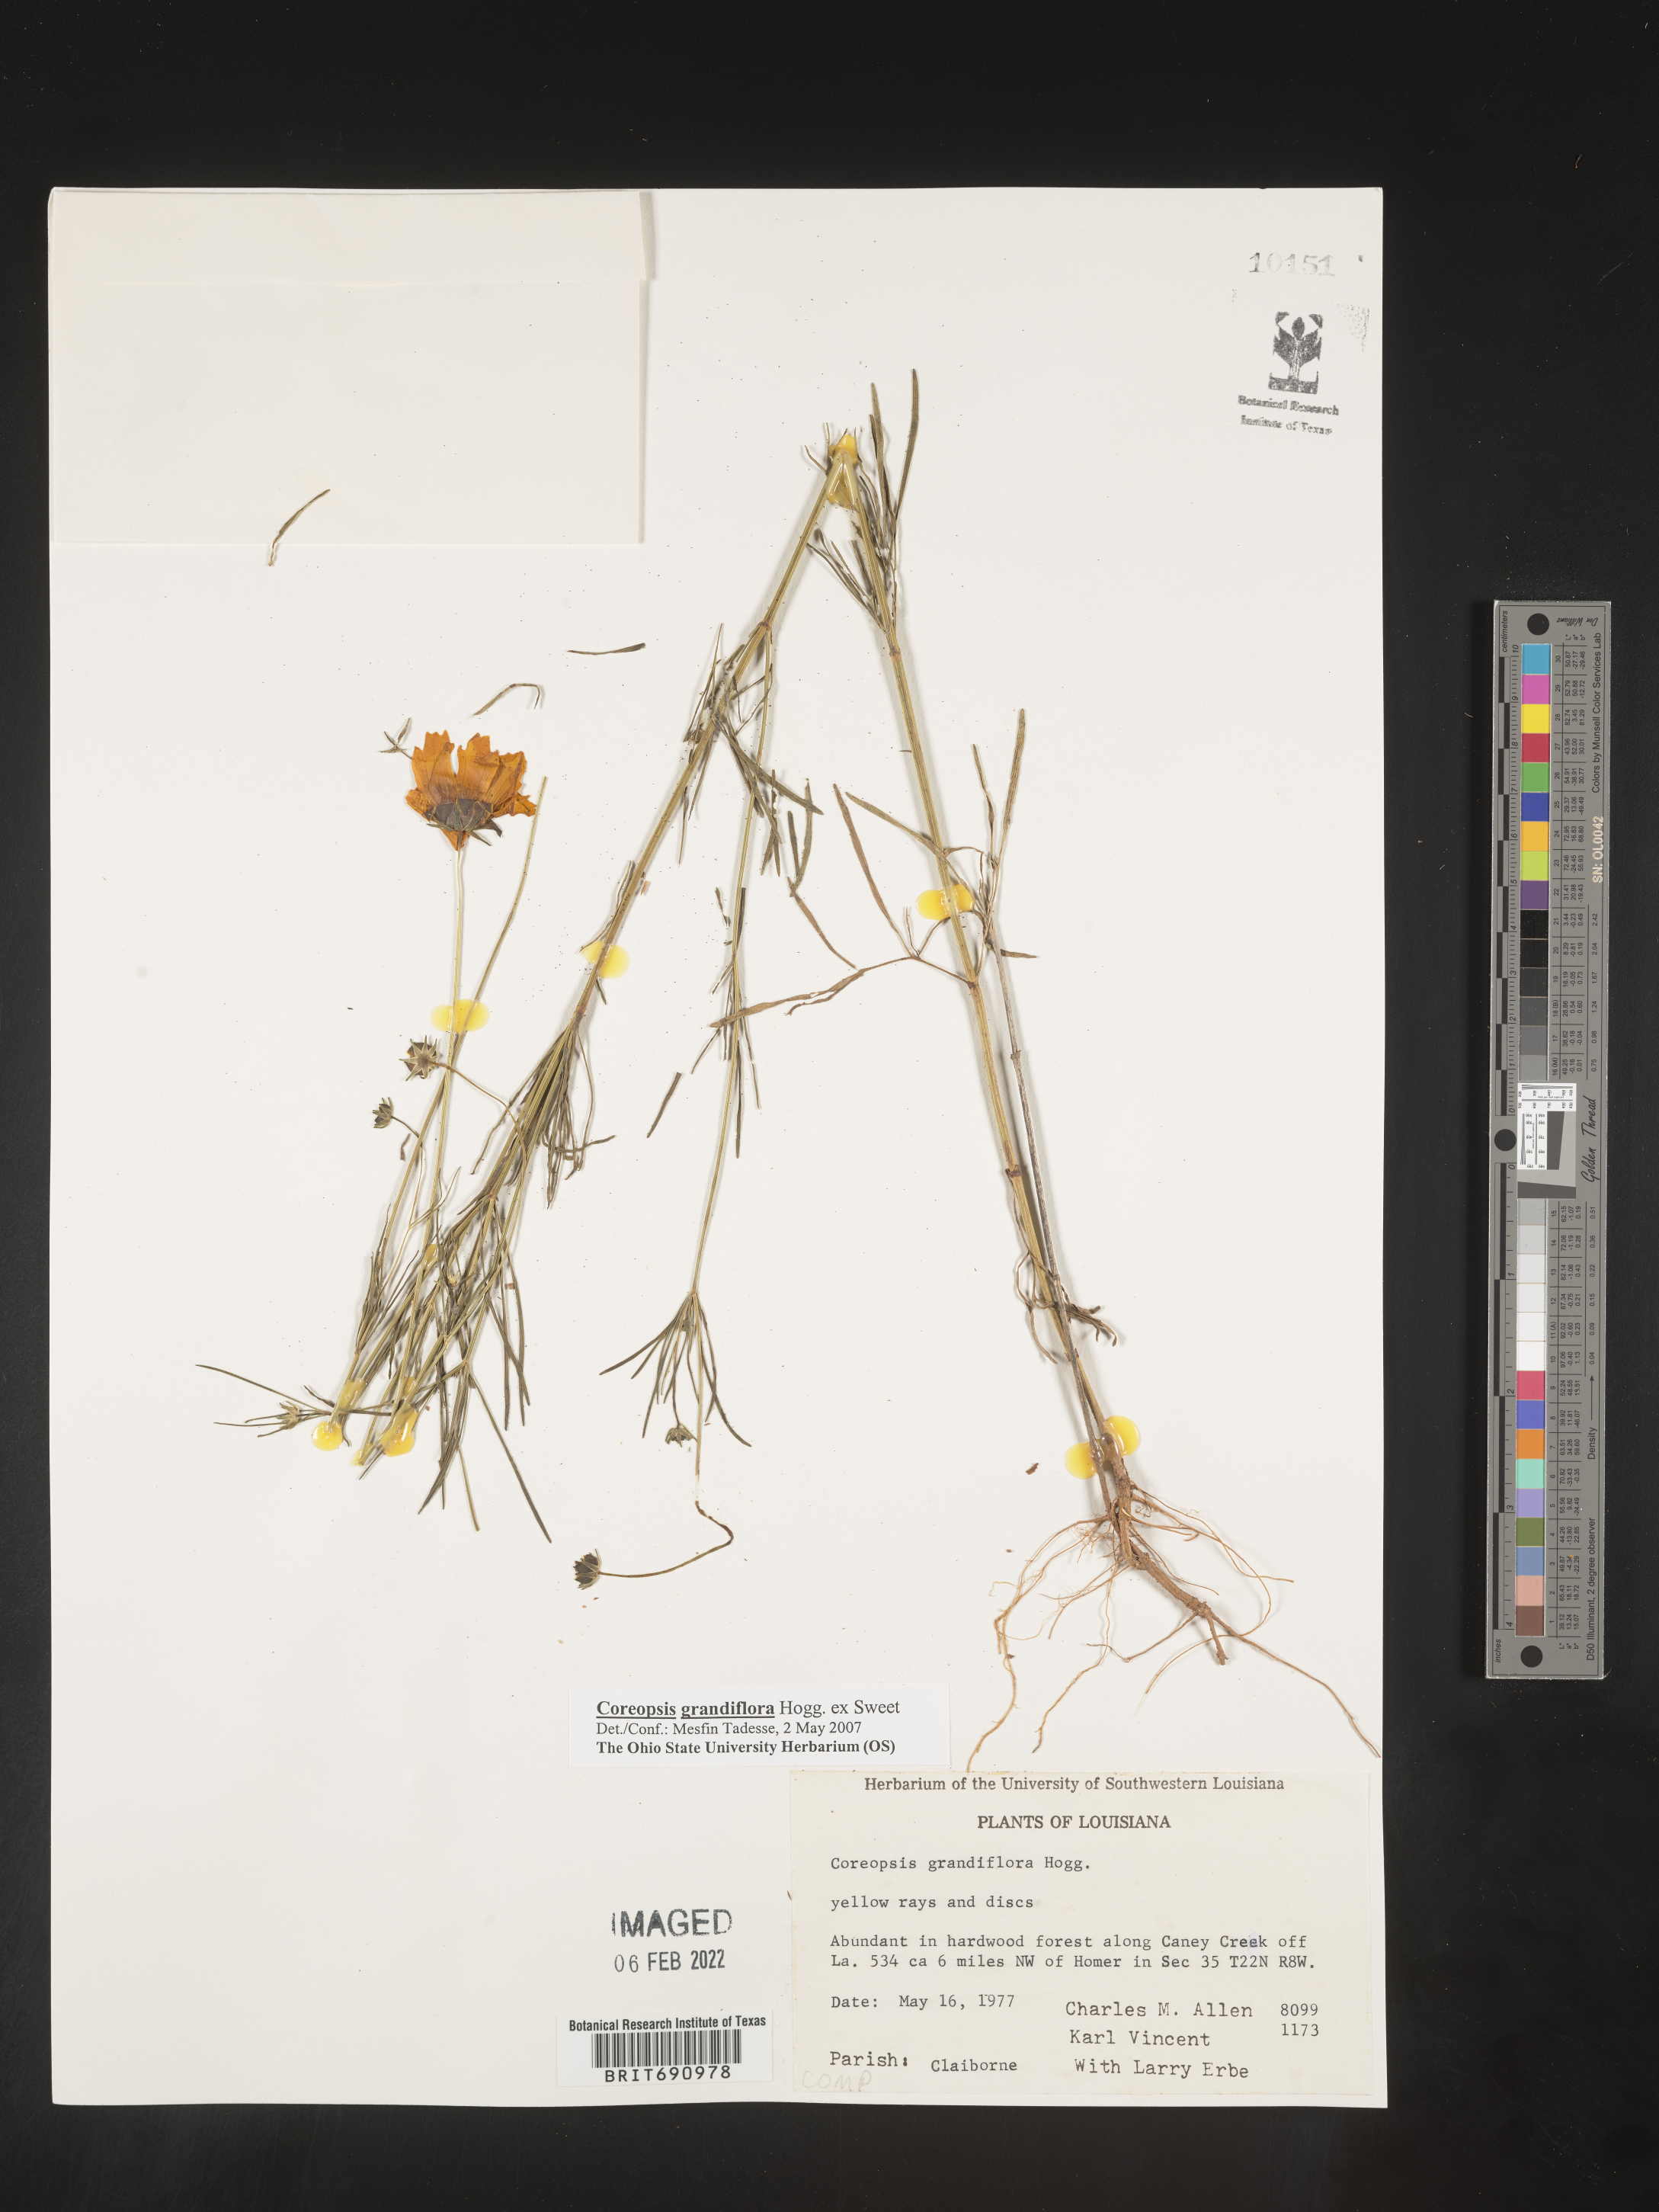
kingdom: Plantae
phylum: Tracheophyta
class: Magnoliopsida
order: Asterales
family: Asteraceae
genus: Coreopsis
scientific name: Coreopsis grandiflora
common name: Large-flowered tickseed
